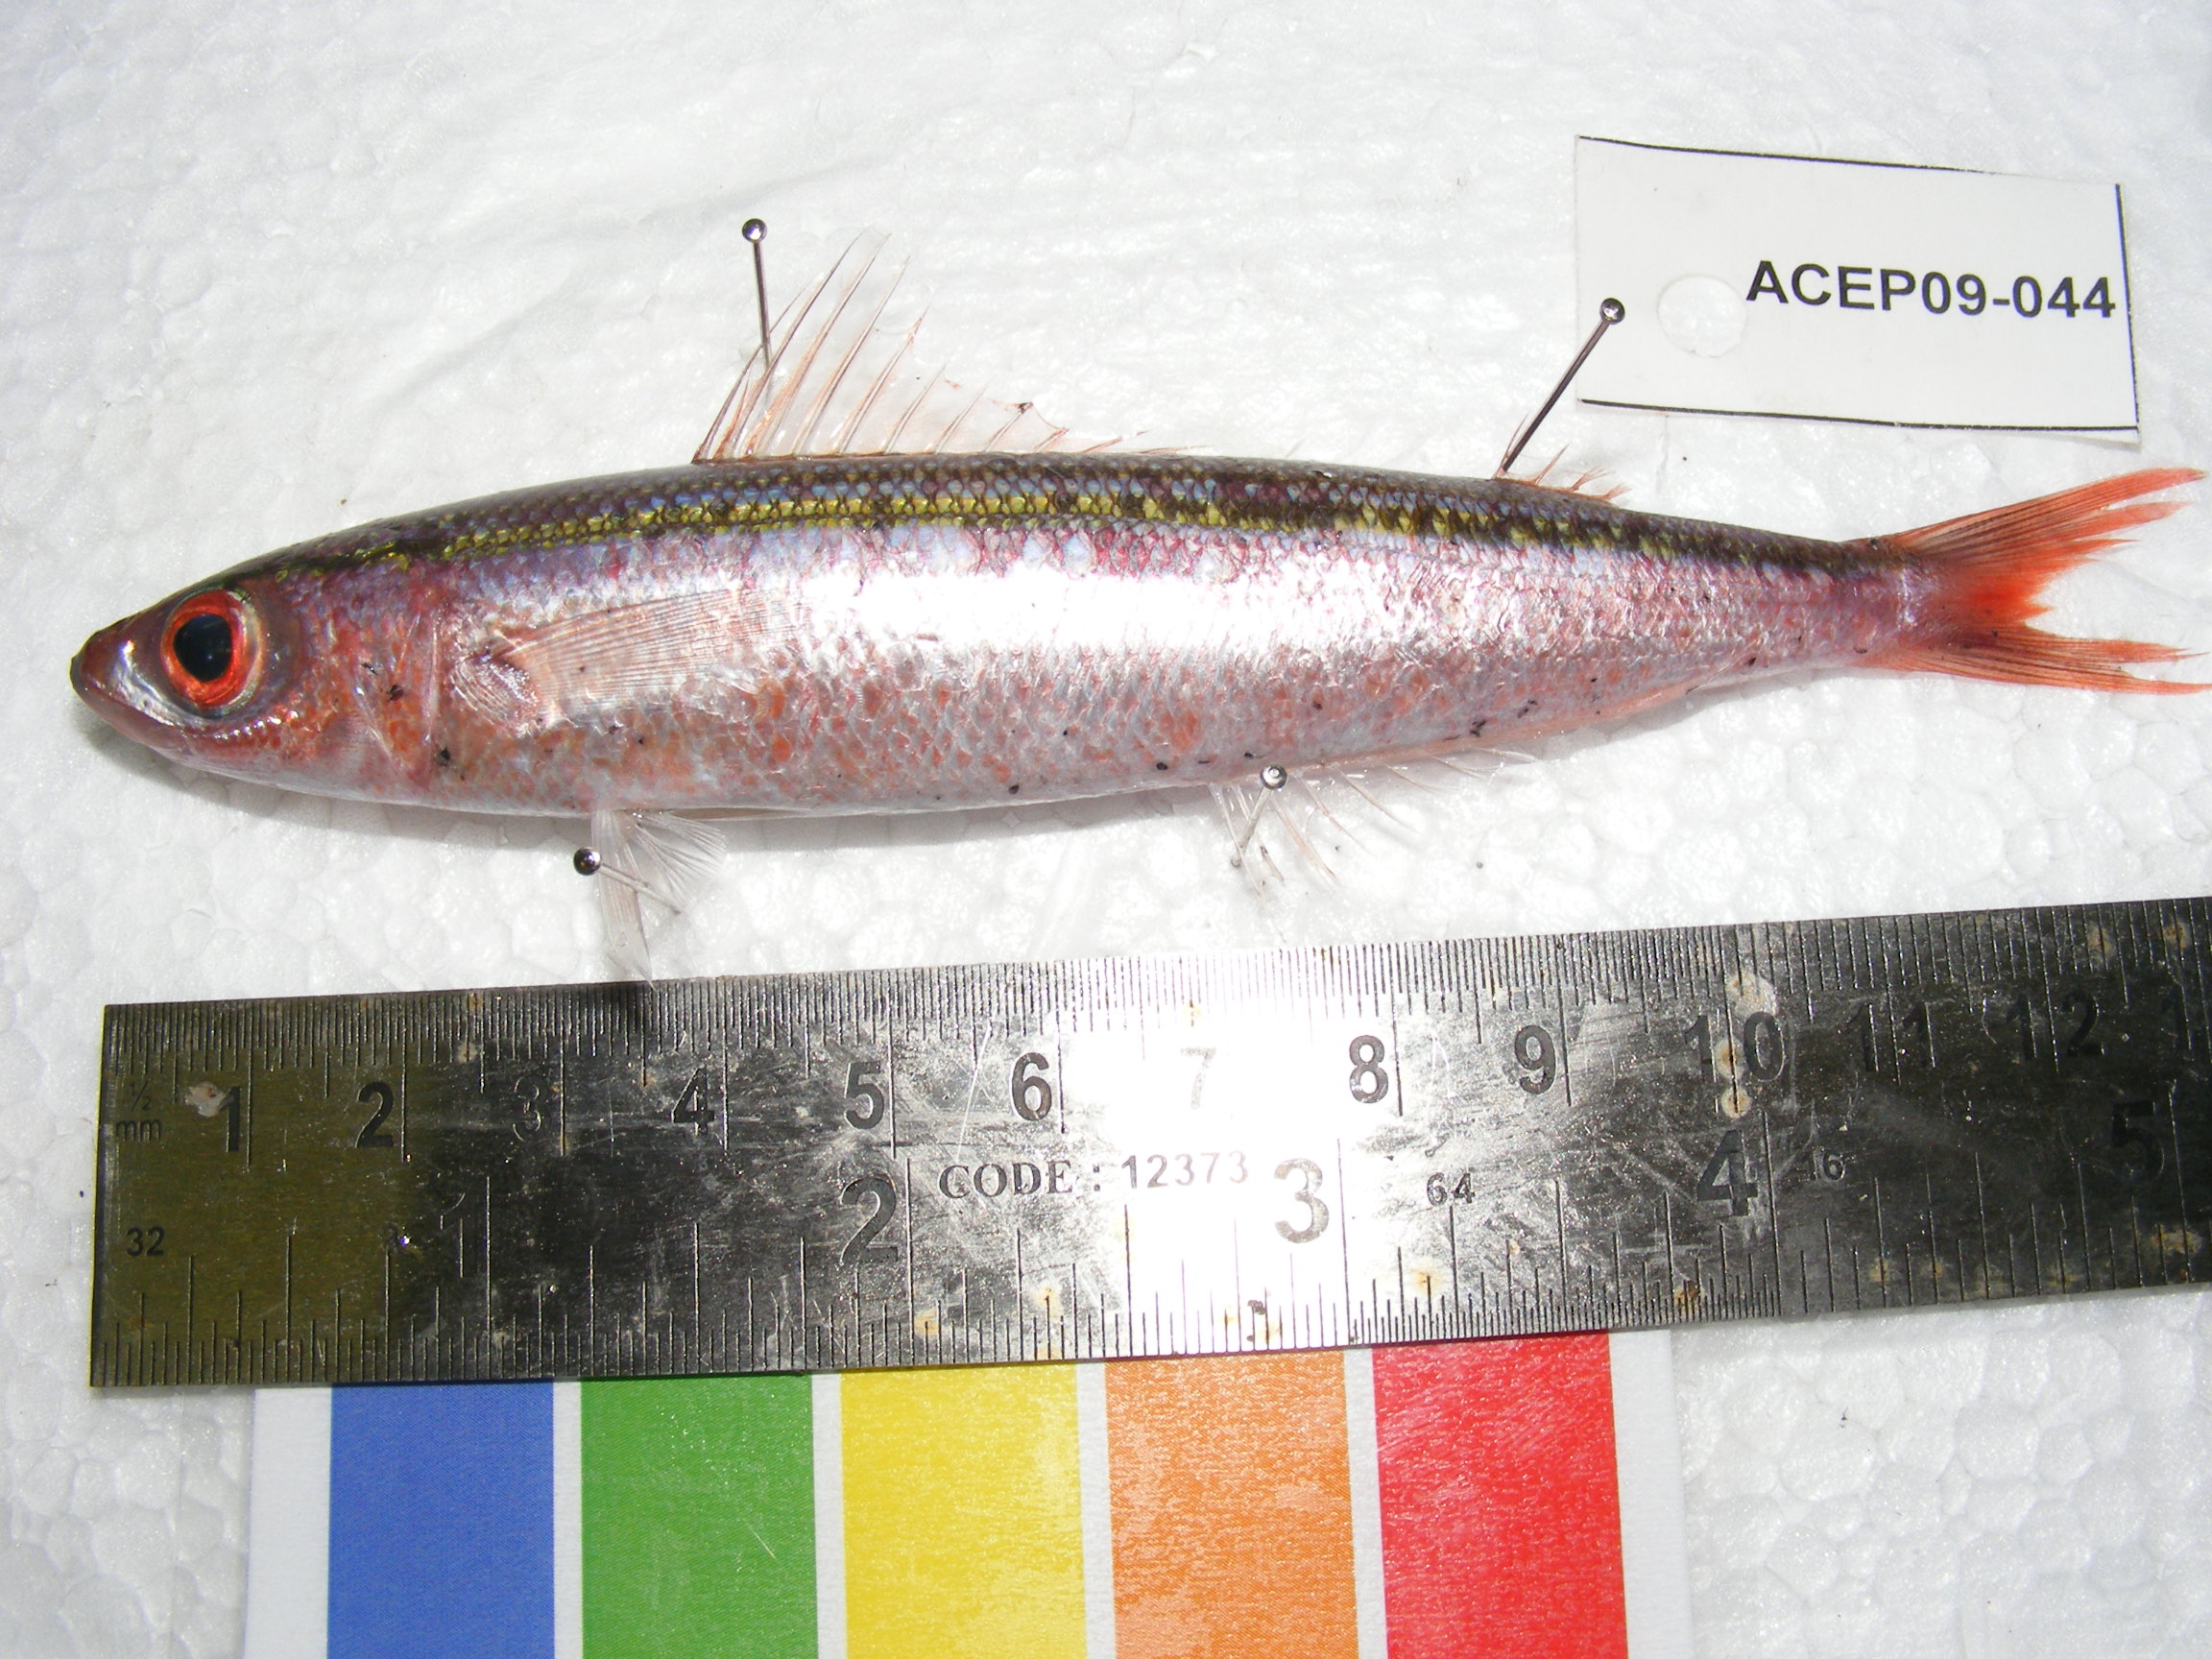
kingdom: Animalia
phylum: Chordata
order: Perciformes
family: Caesionidae
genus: Pterocaesio
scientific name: Pterocaesio
